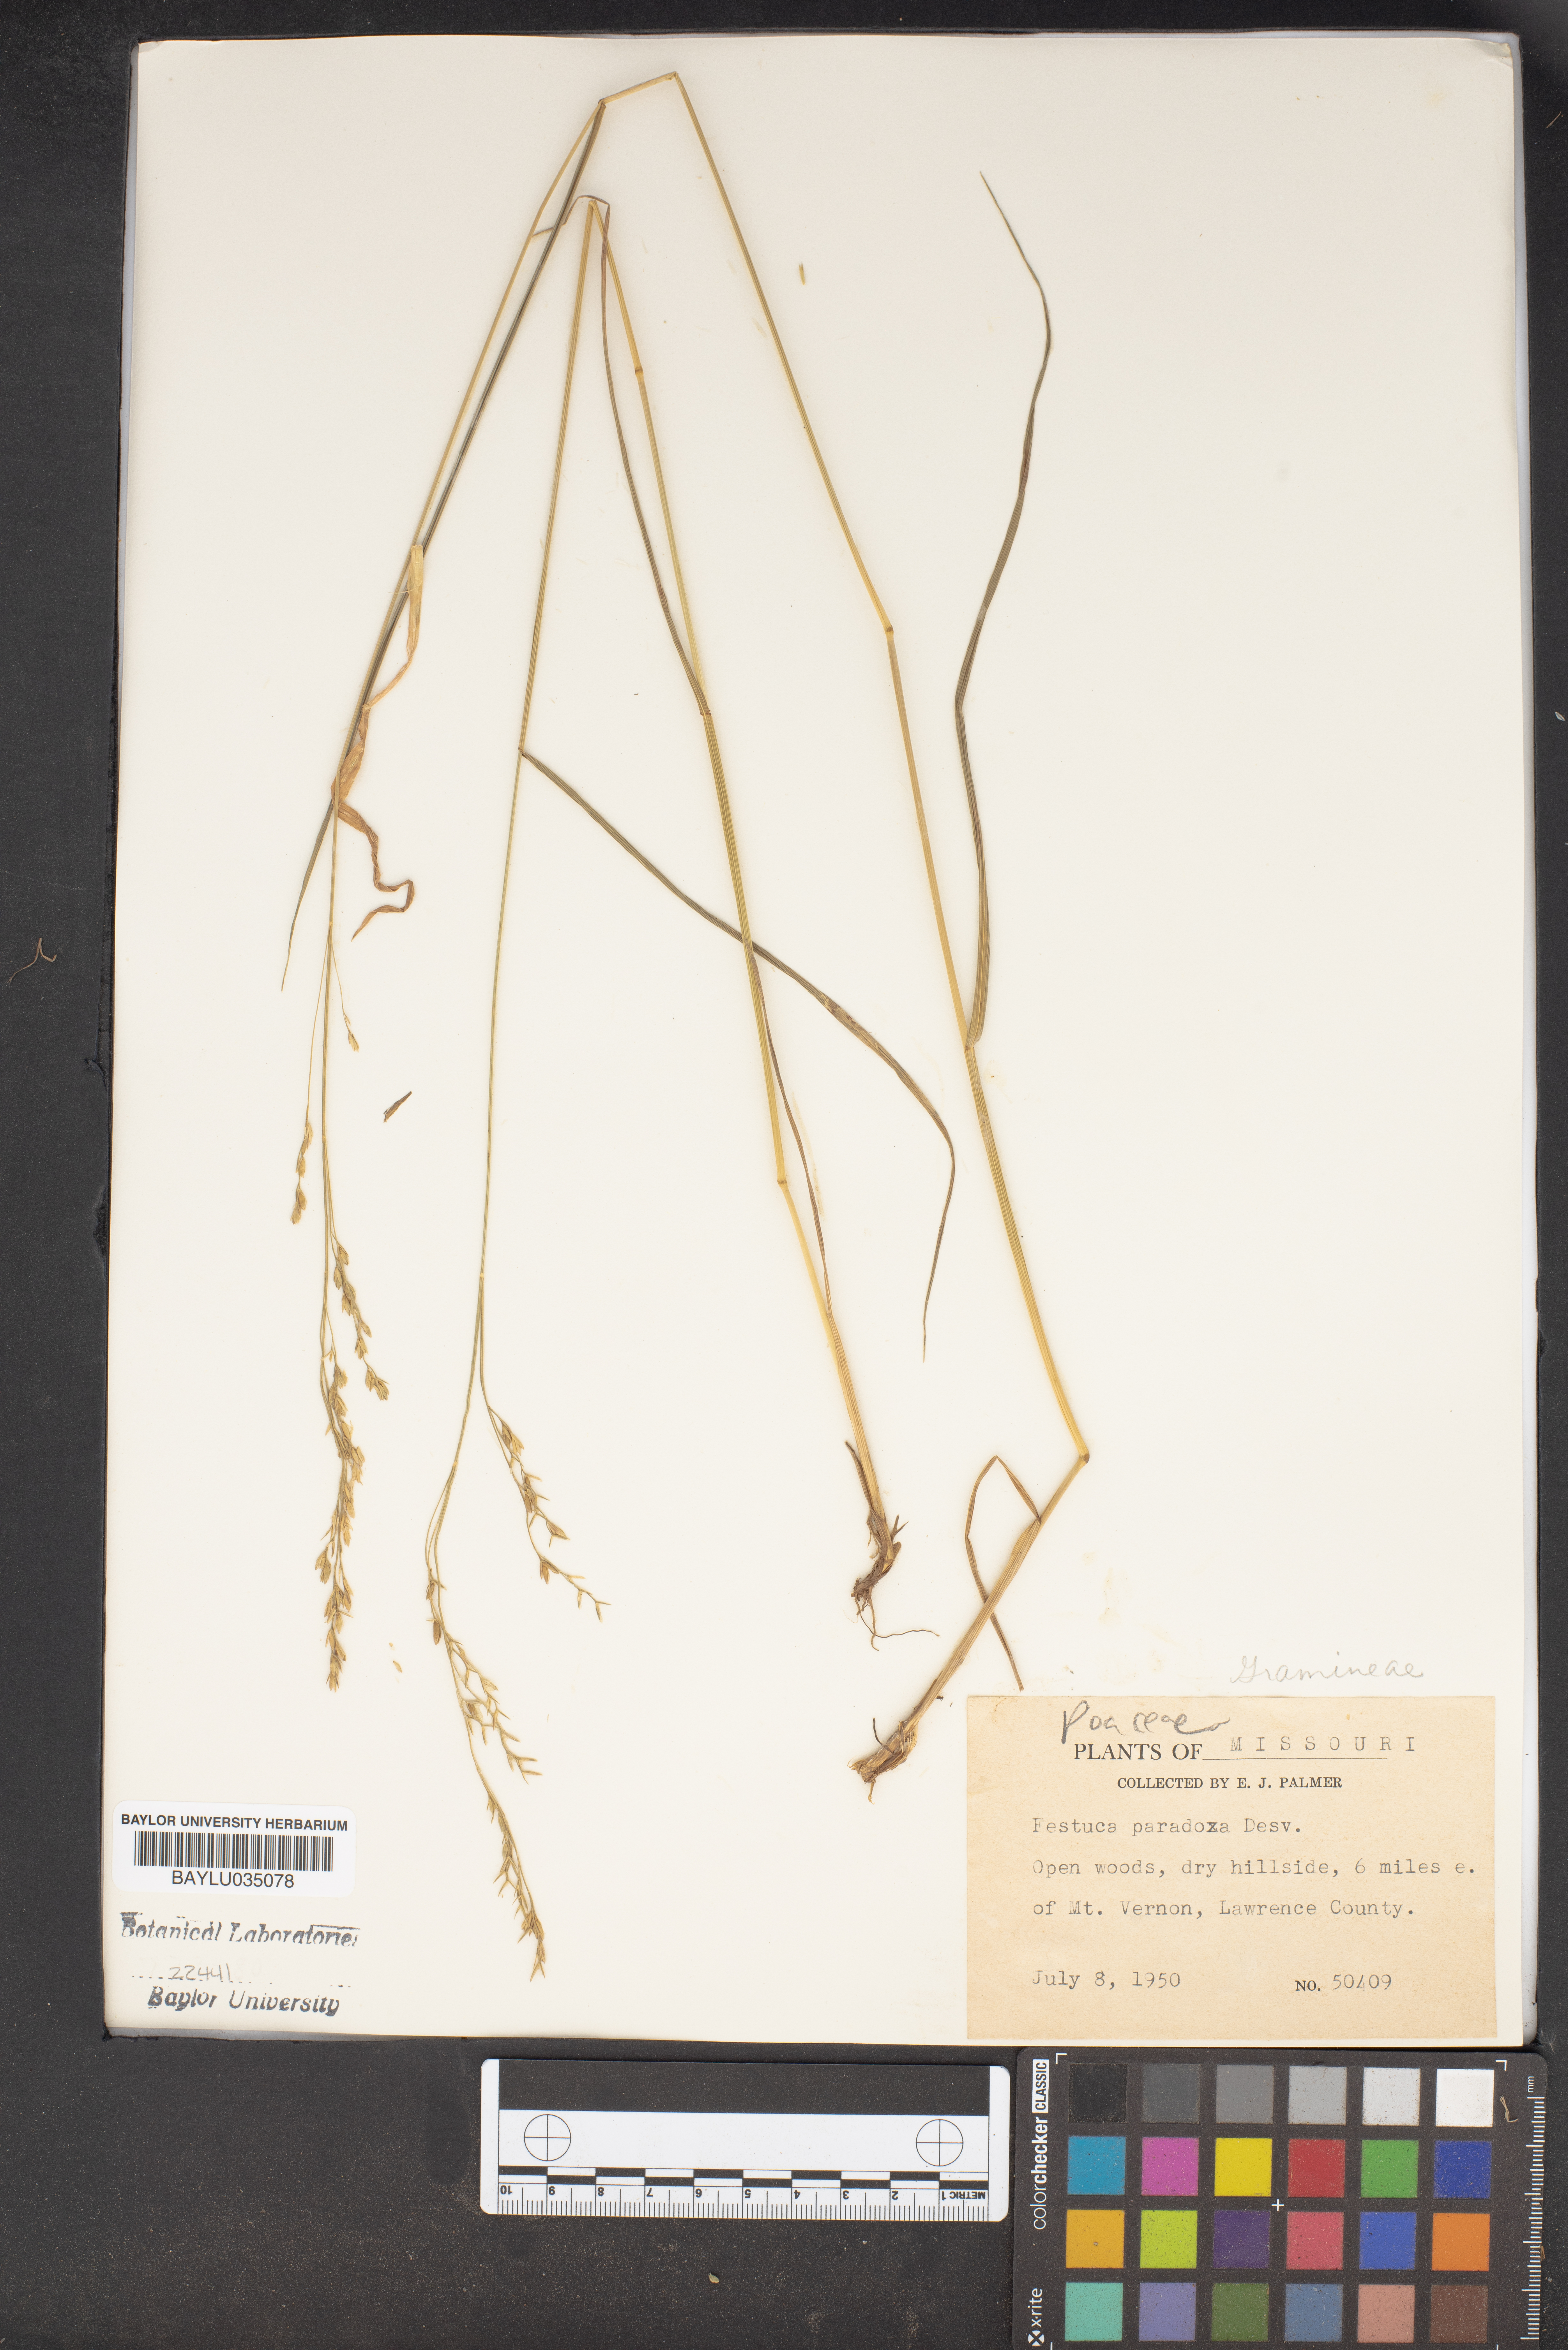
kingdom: Plantae
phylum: Tracheophyta
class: Liliopsida
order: Poales
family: Poaceae
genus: Festuca
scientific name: Festuca paradoxa
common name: Cluster fescue
